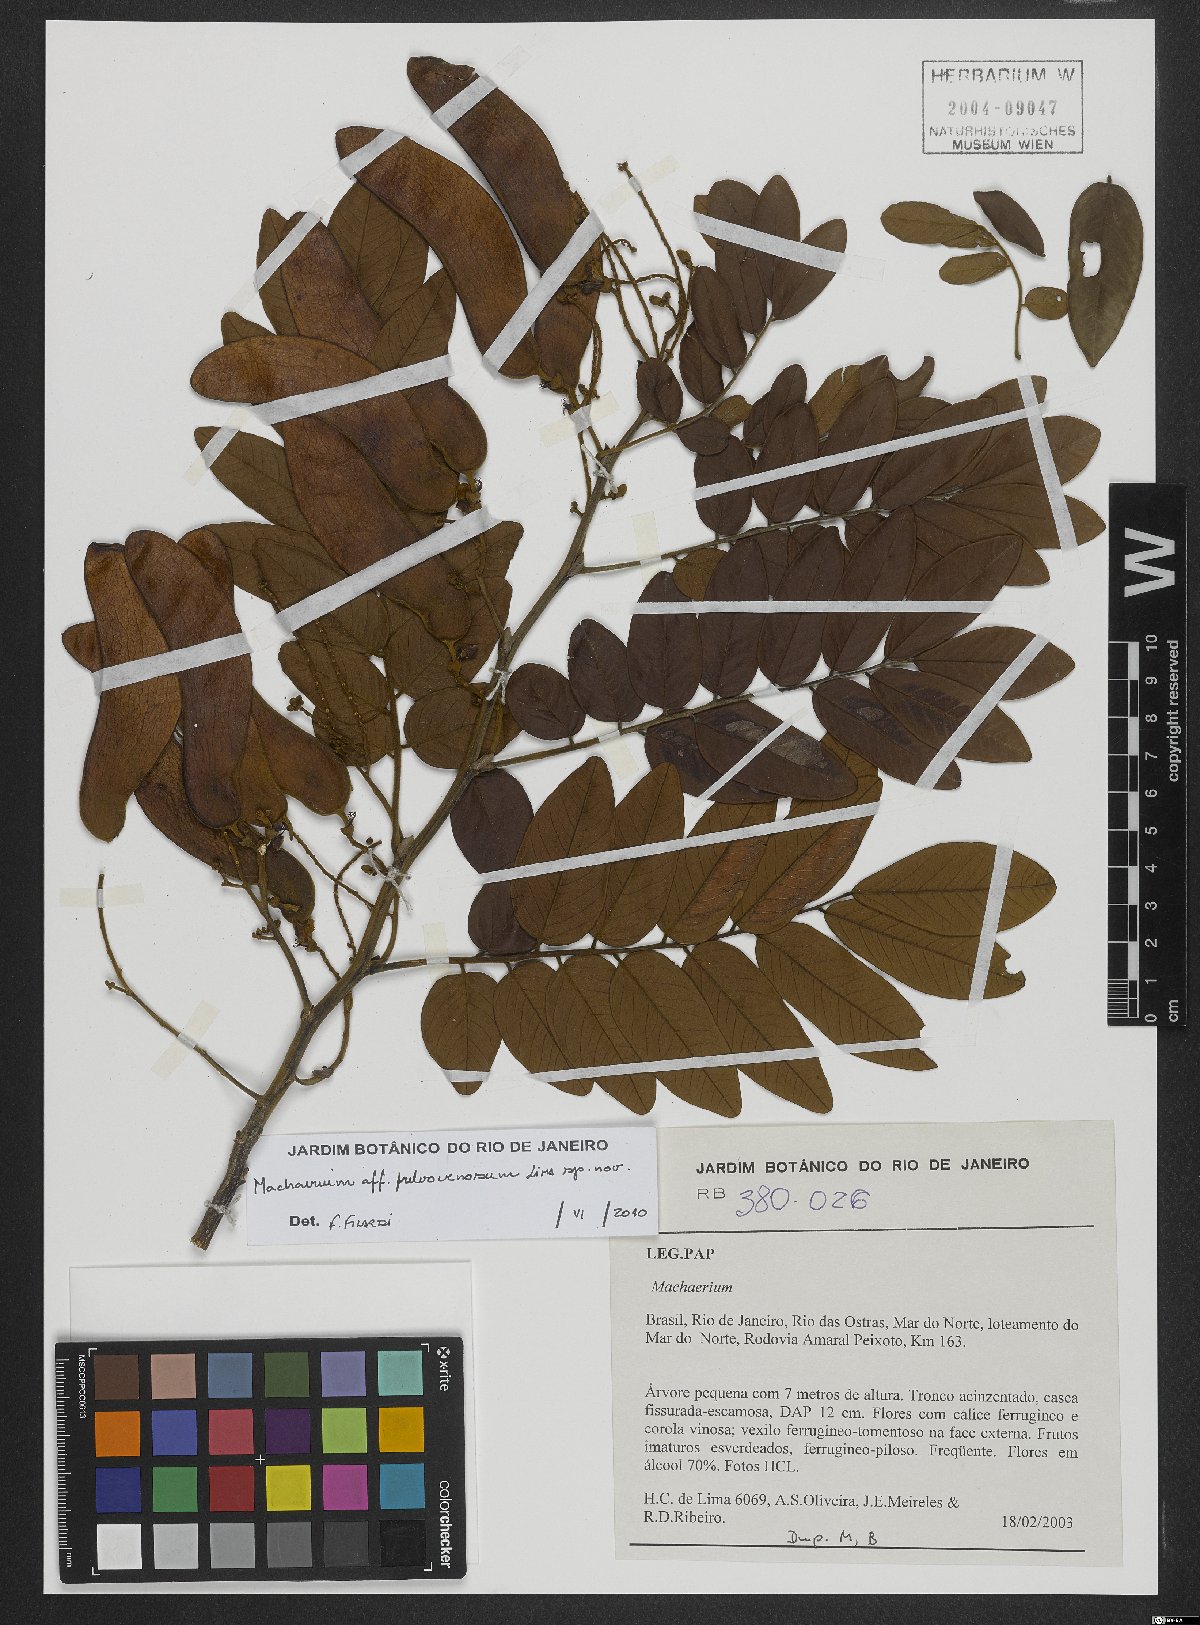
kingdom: Plantae
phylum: Tracheophyta
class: Magnoliopsida
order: Fabales
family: Fabaceae
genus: Machaerium
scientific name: Machaerium fulvovenosum
